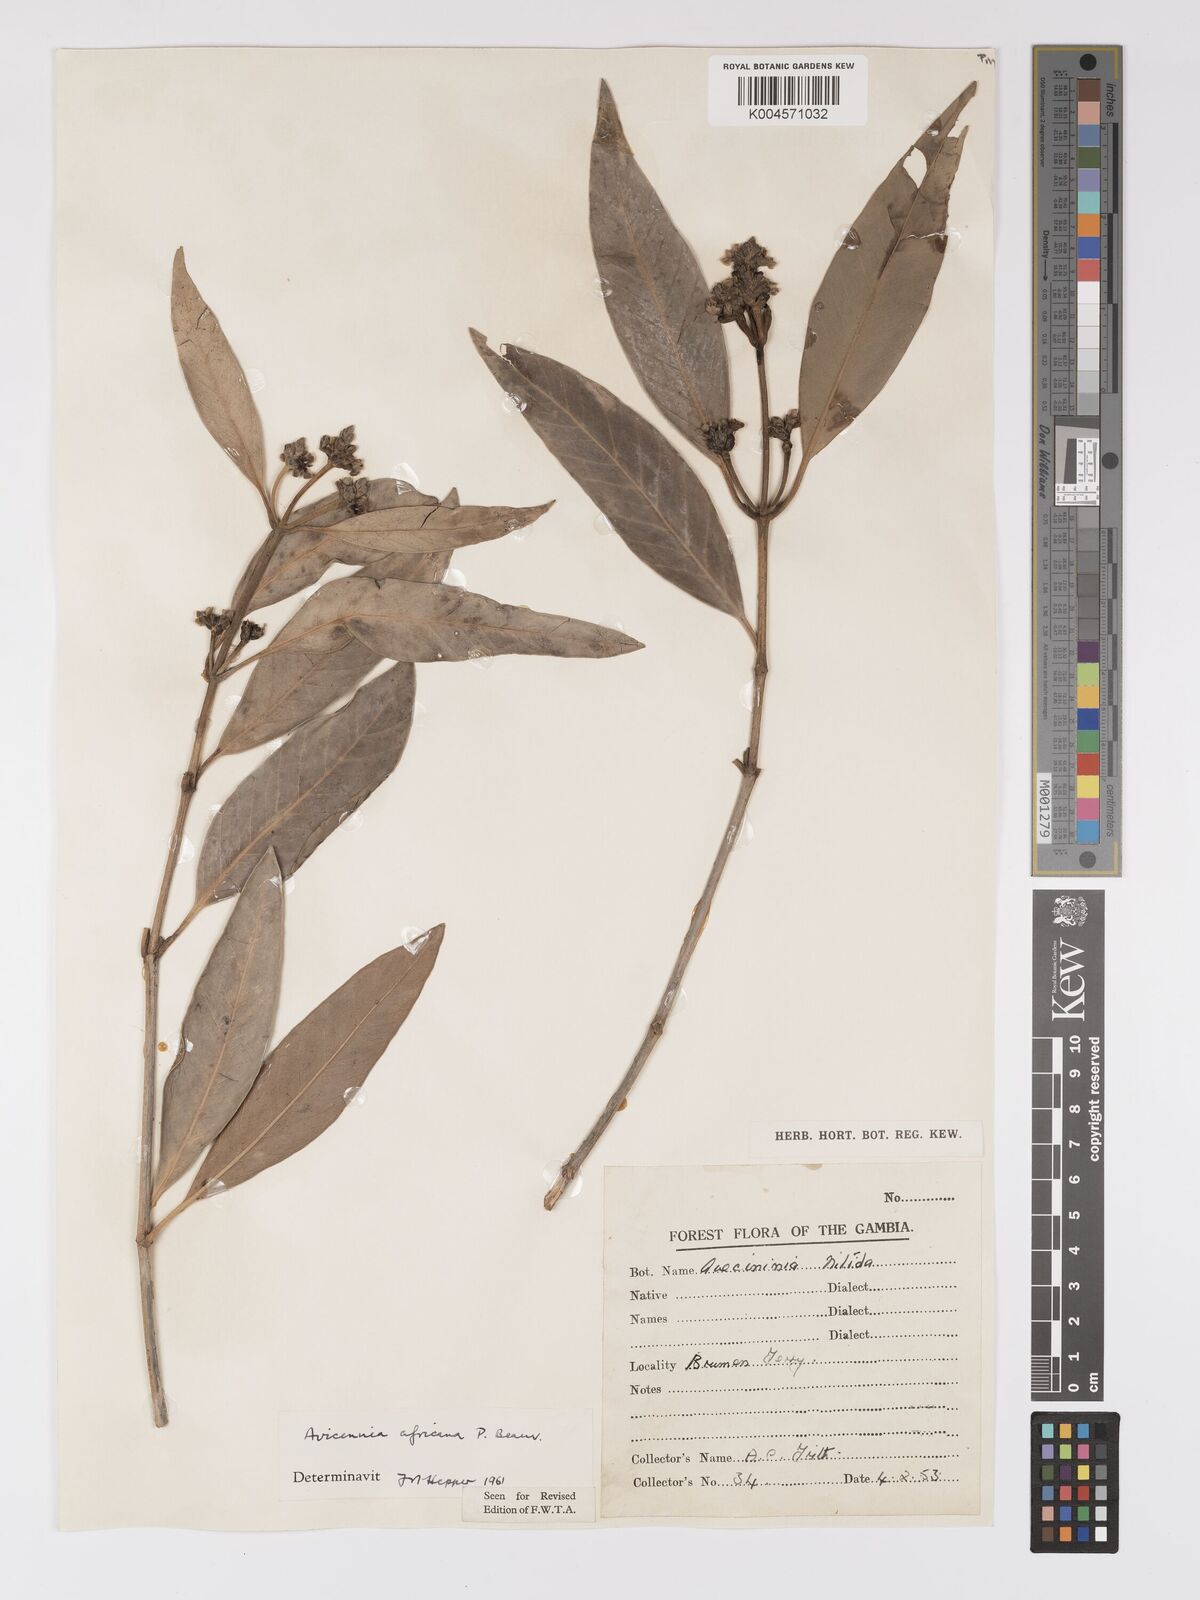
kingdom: Plantae
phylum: Tracheophyta
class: Magnoliopsida
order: Lamiales
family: Acanthaceae
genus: Avicennia
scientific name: Avicennia germinans
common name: Black mangrove
